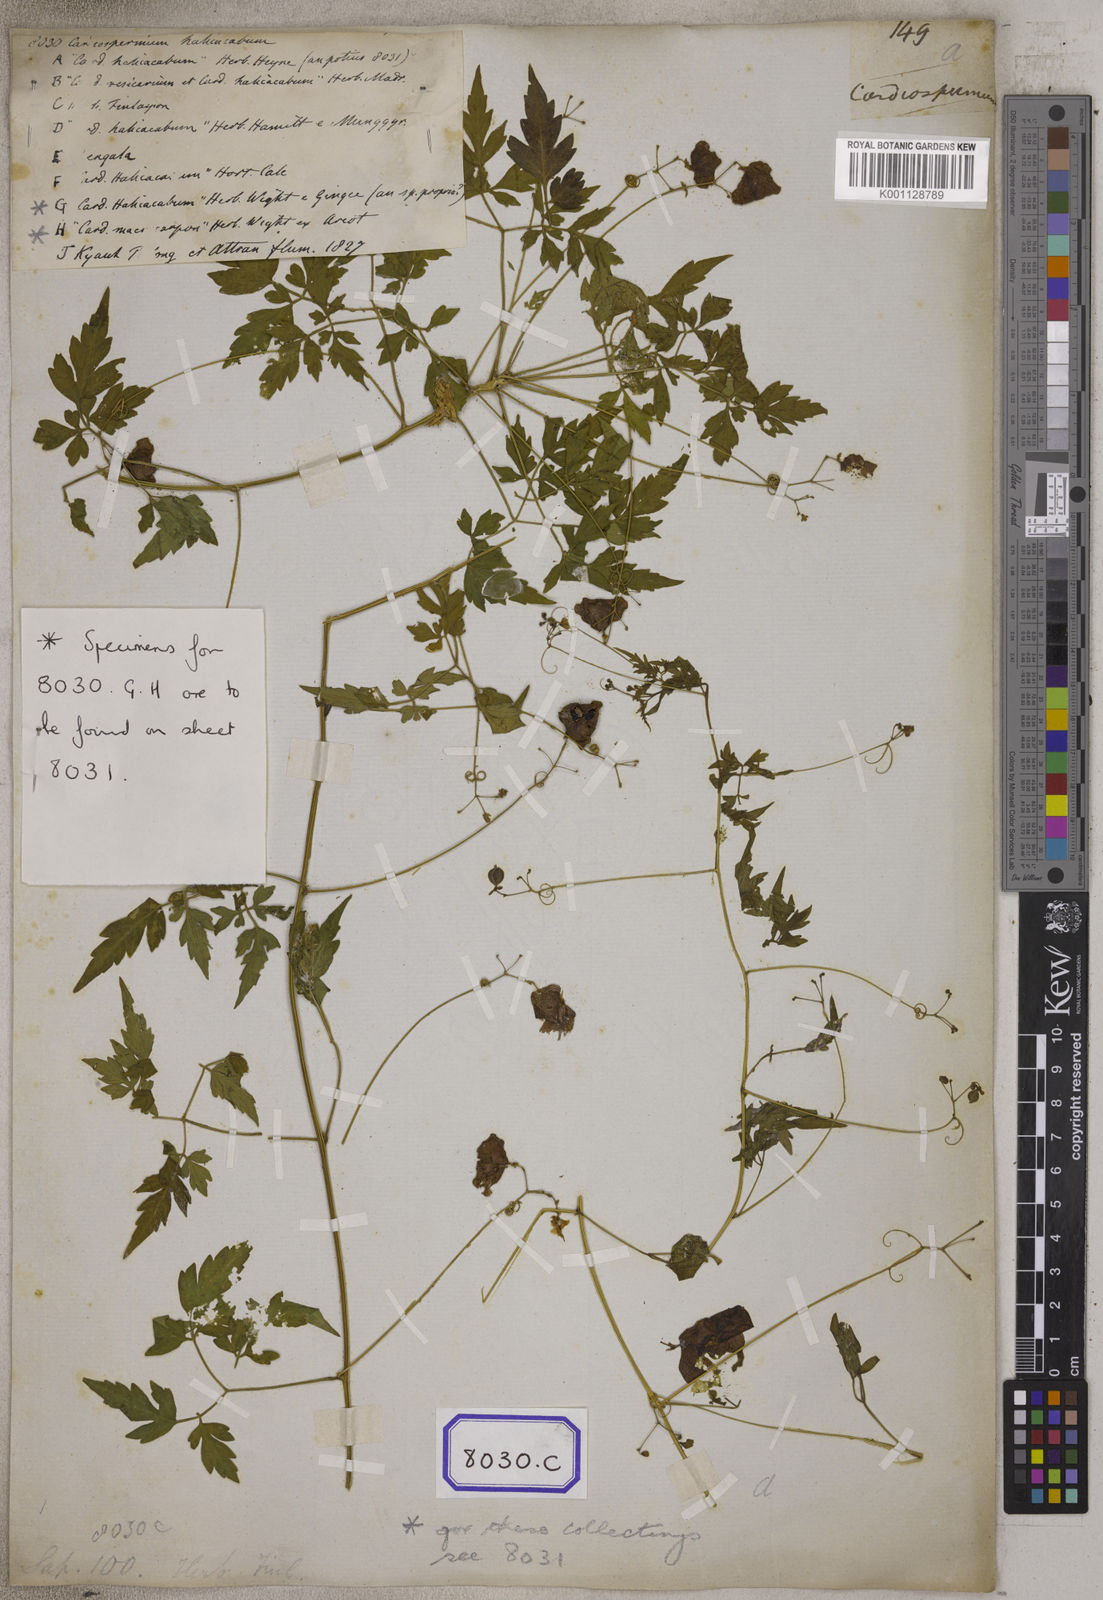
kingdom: Plantae
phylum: Tracheophyta
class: Magnoliopsida
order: Sapindales
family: Sapindaceae
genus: Cardiospermum
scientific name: Cardiospermum halicacabum
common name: Balloon vine
